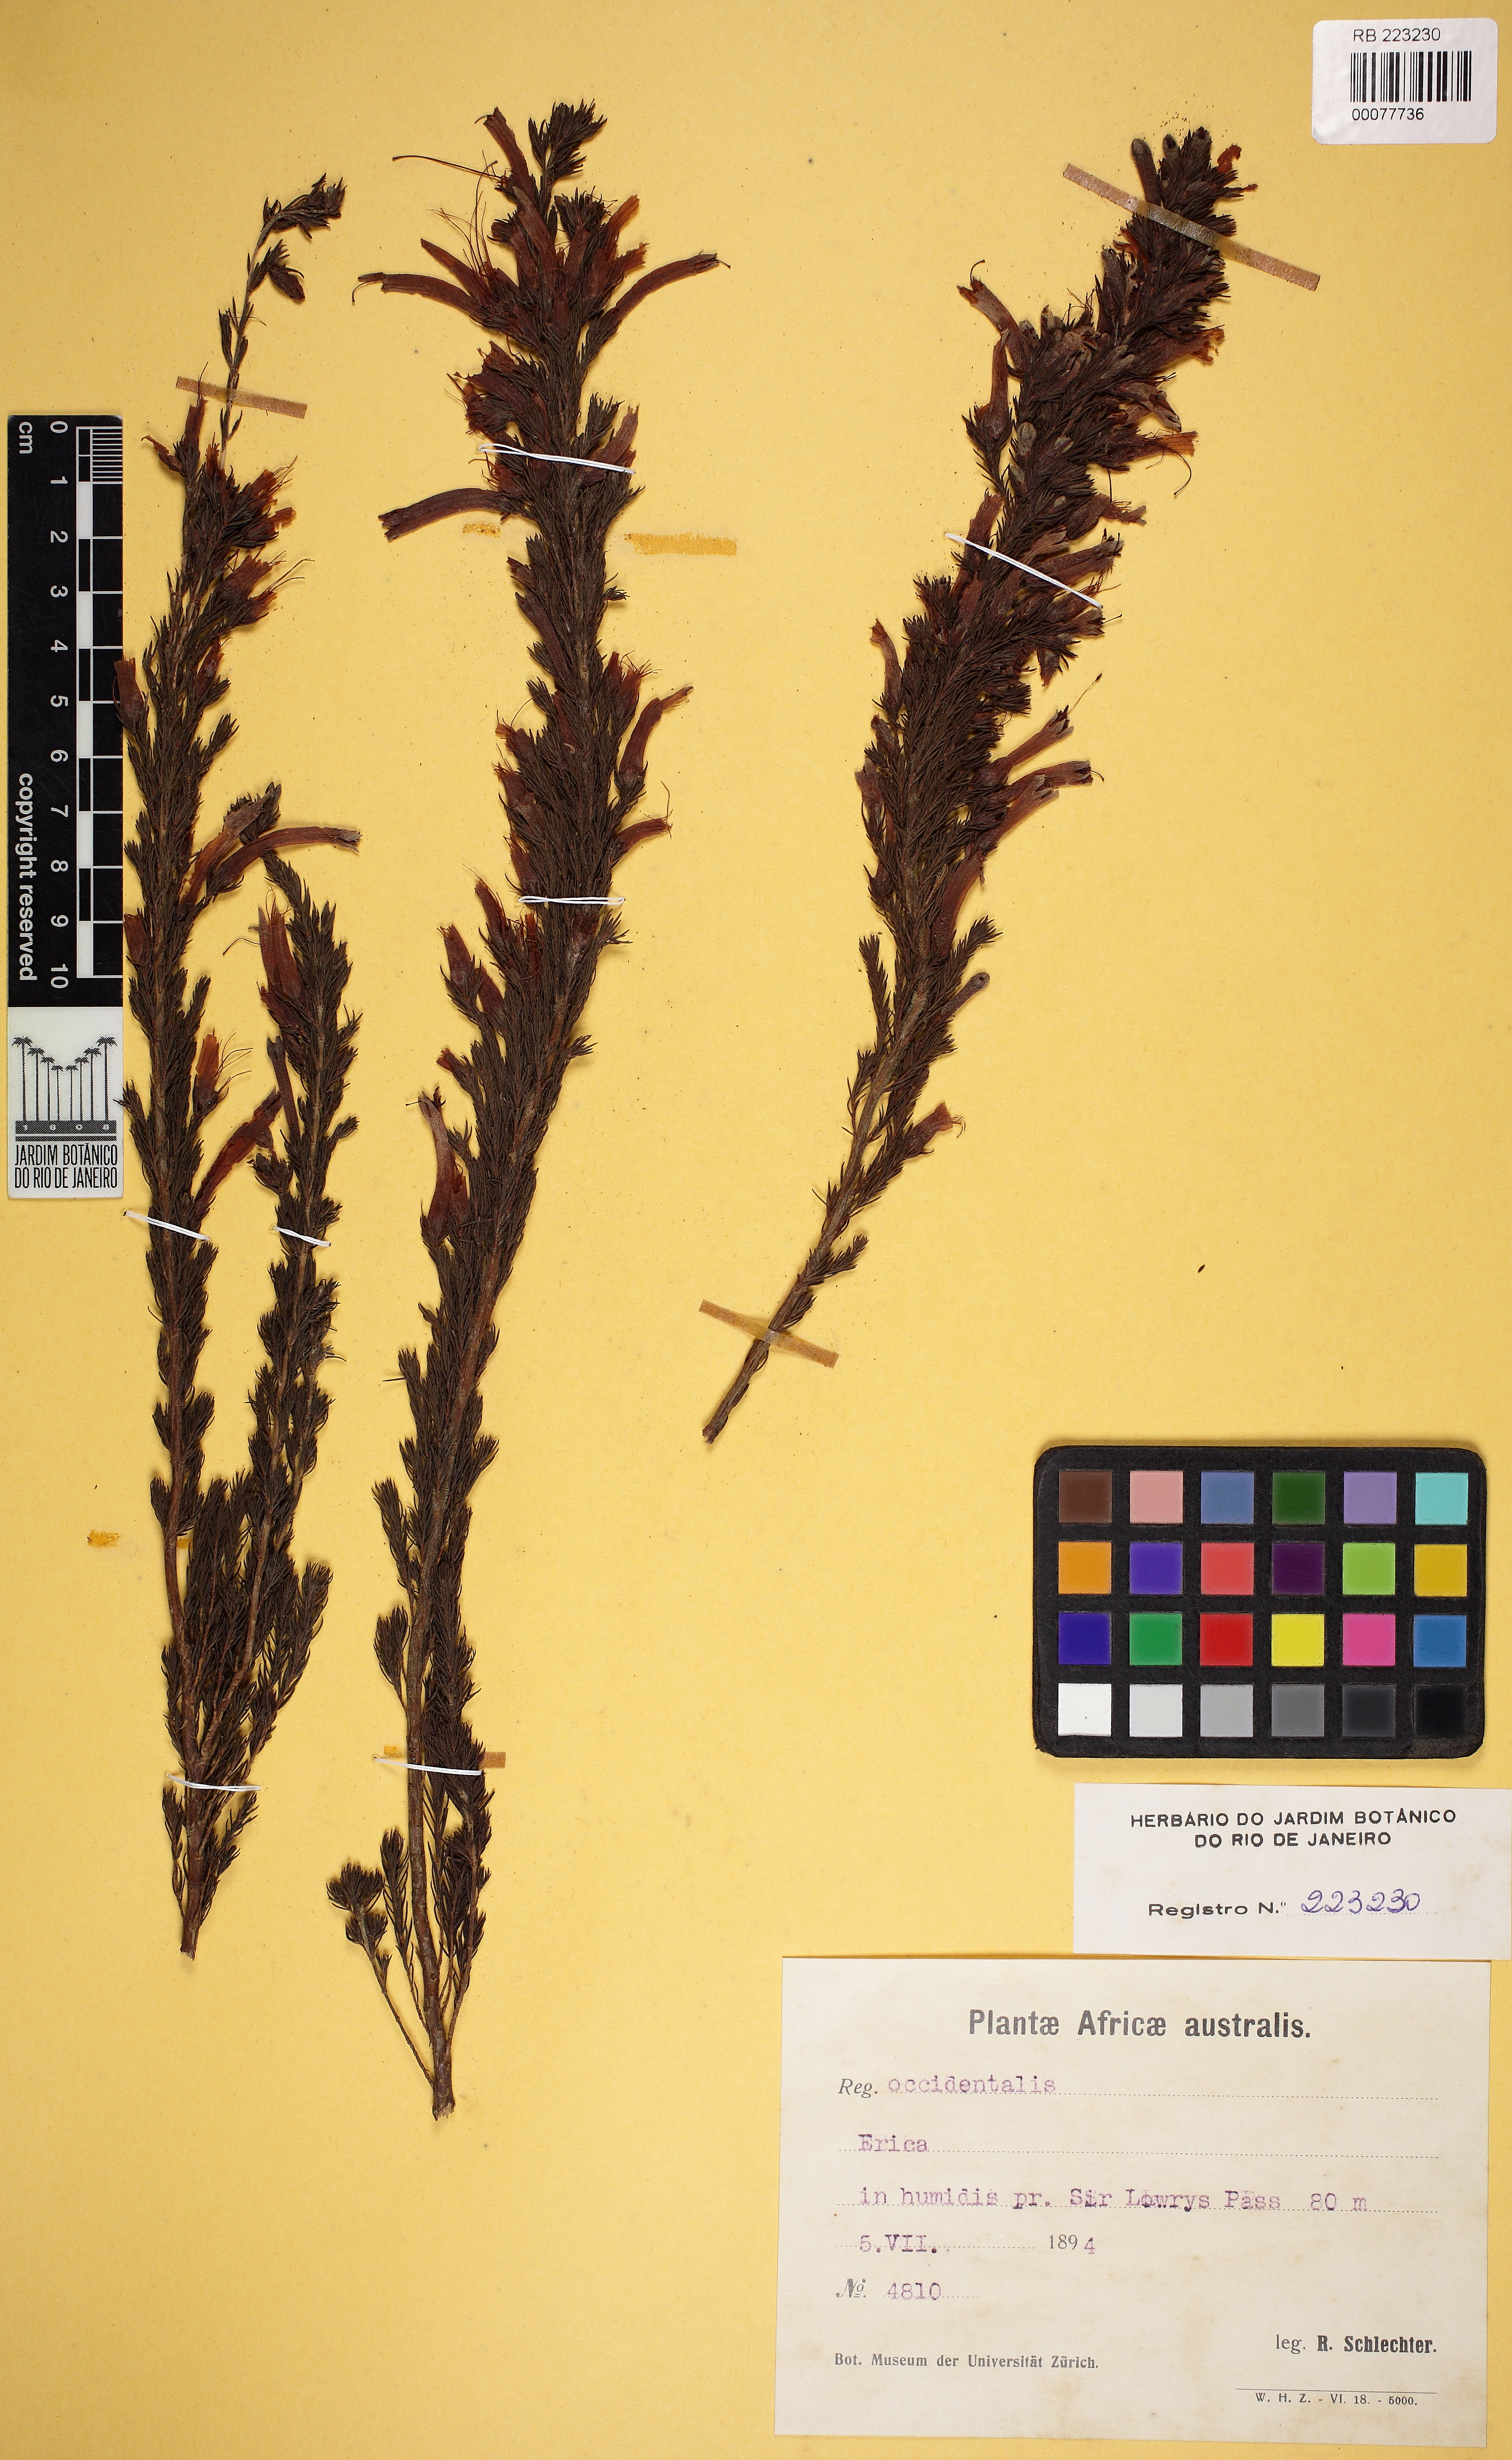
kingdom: Plantae
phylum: Tracheophyta
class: Magnoliopsida
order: Ericales
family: Ericaceae
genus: Erica
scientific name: Erica
